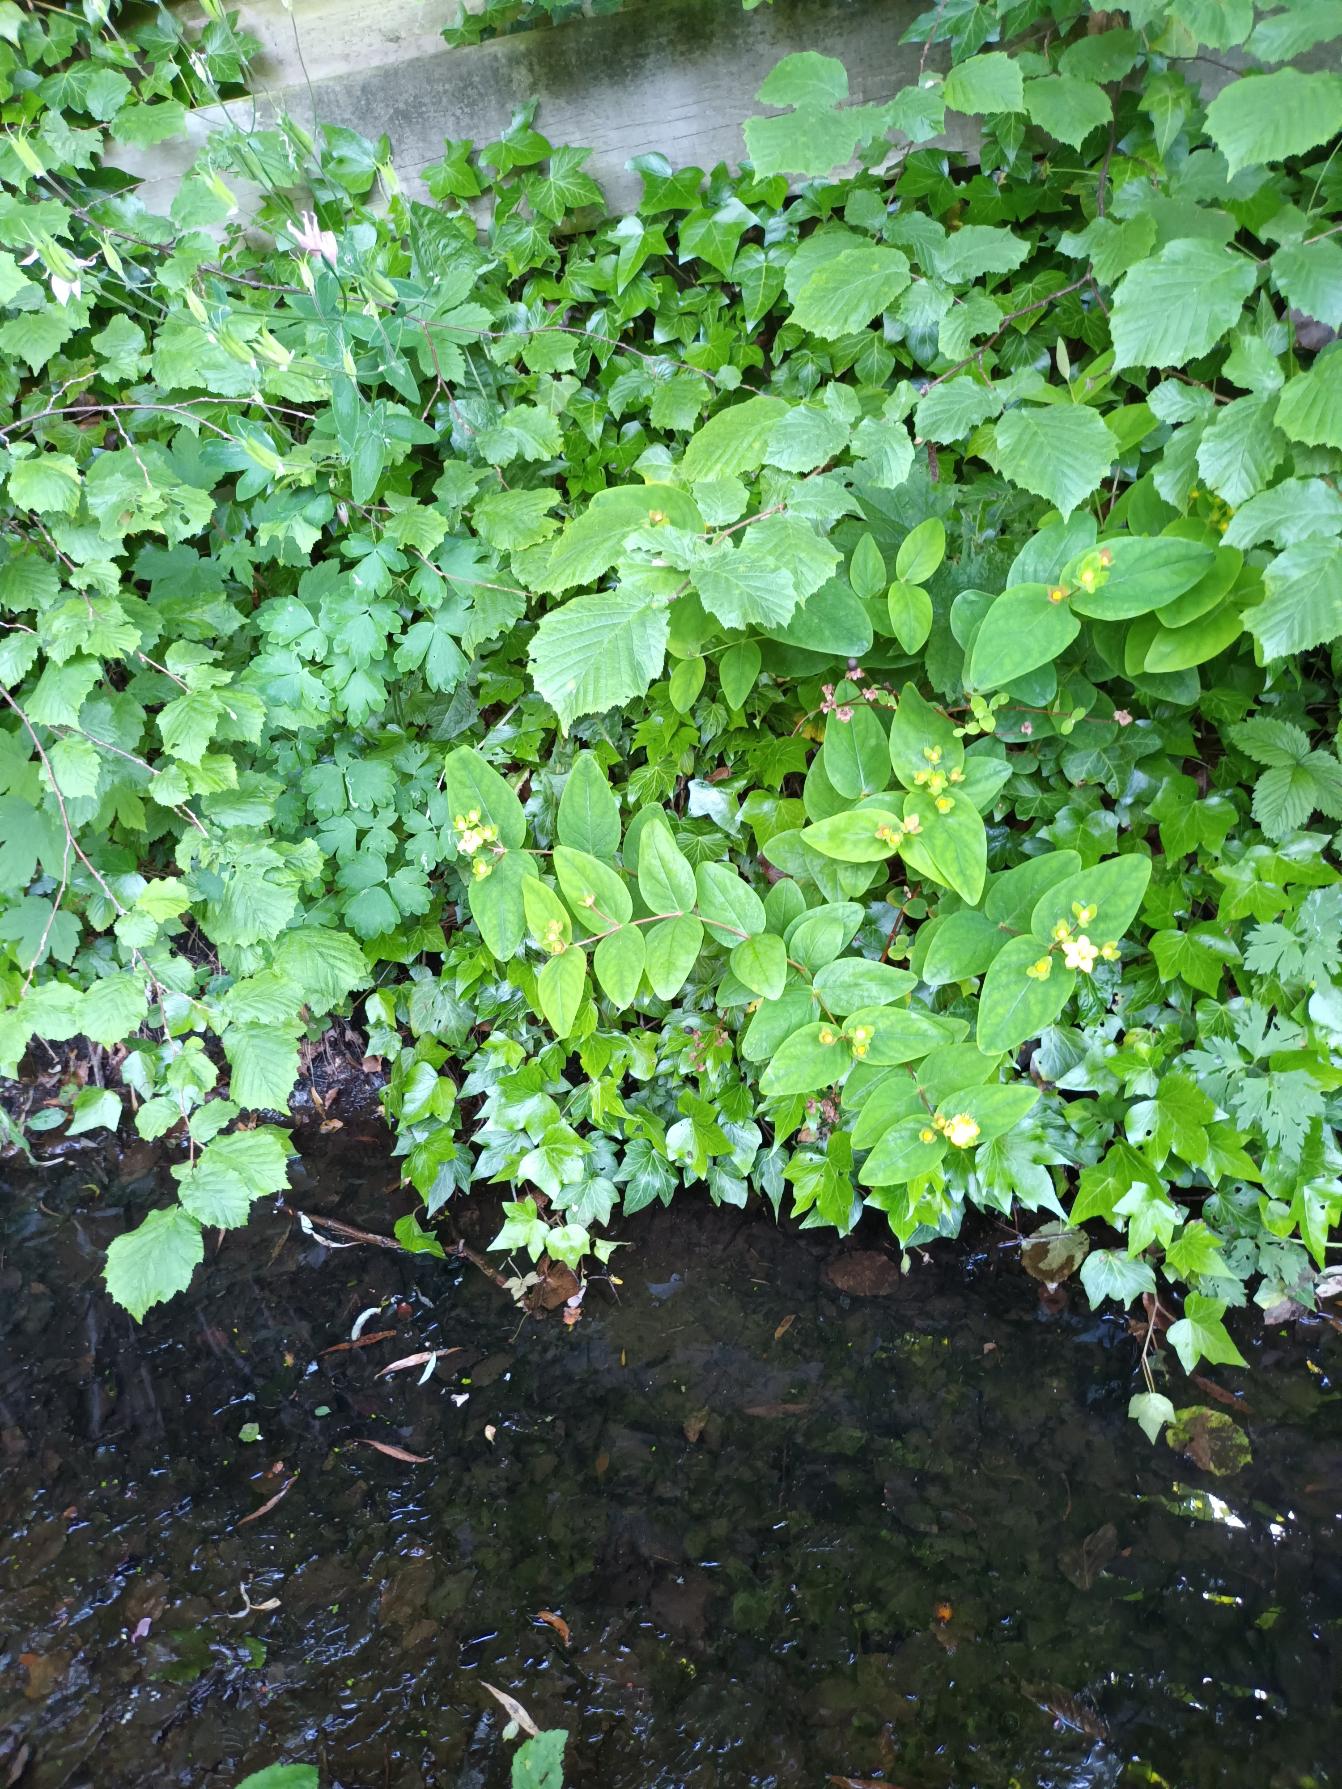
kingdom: Plantae
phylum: Tracheophyta
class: Magnoliopsida
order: Malpighiales
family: Hypericaceae
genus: Hypericum
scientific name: Hypericum androsaemum
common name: Bær-perikon
